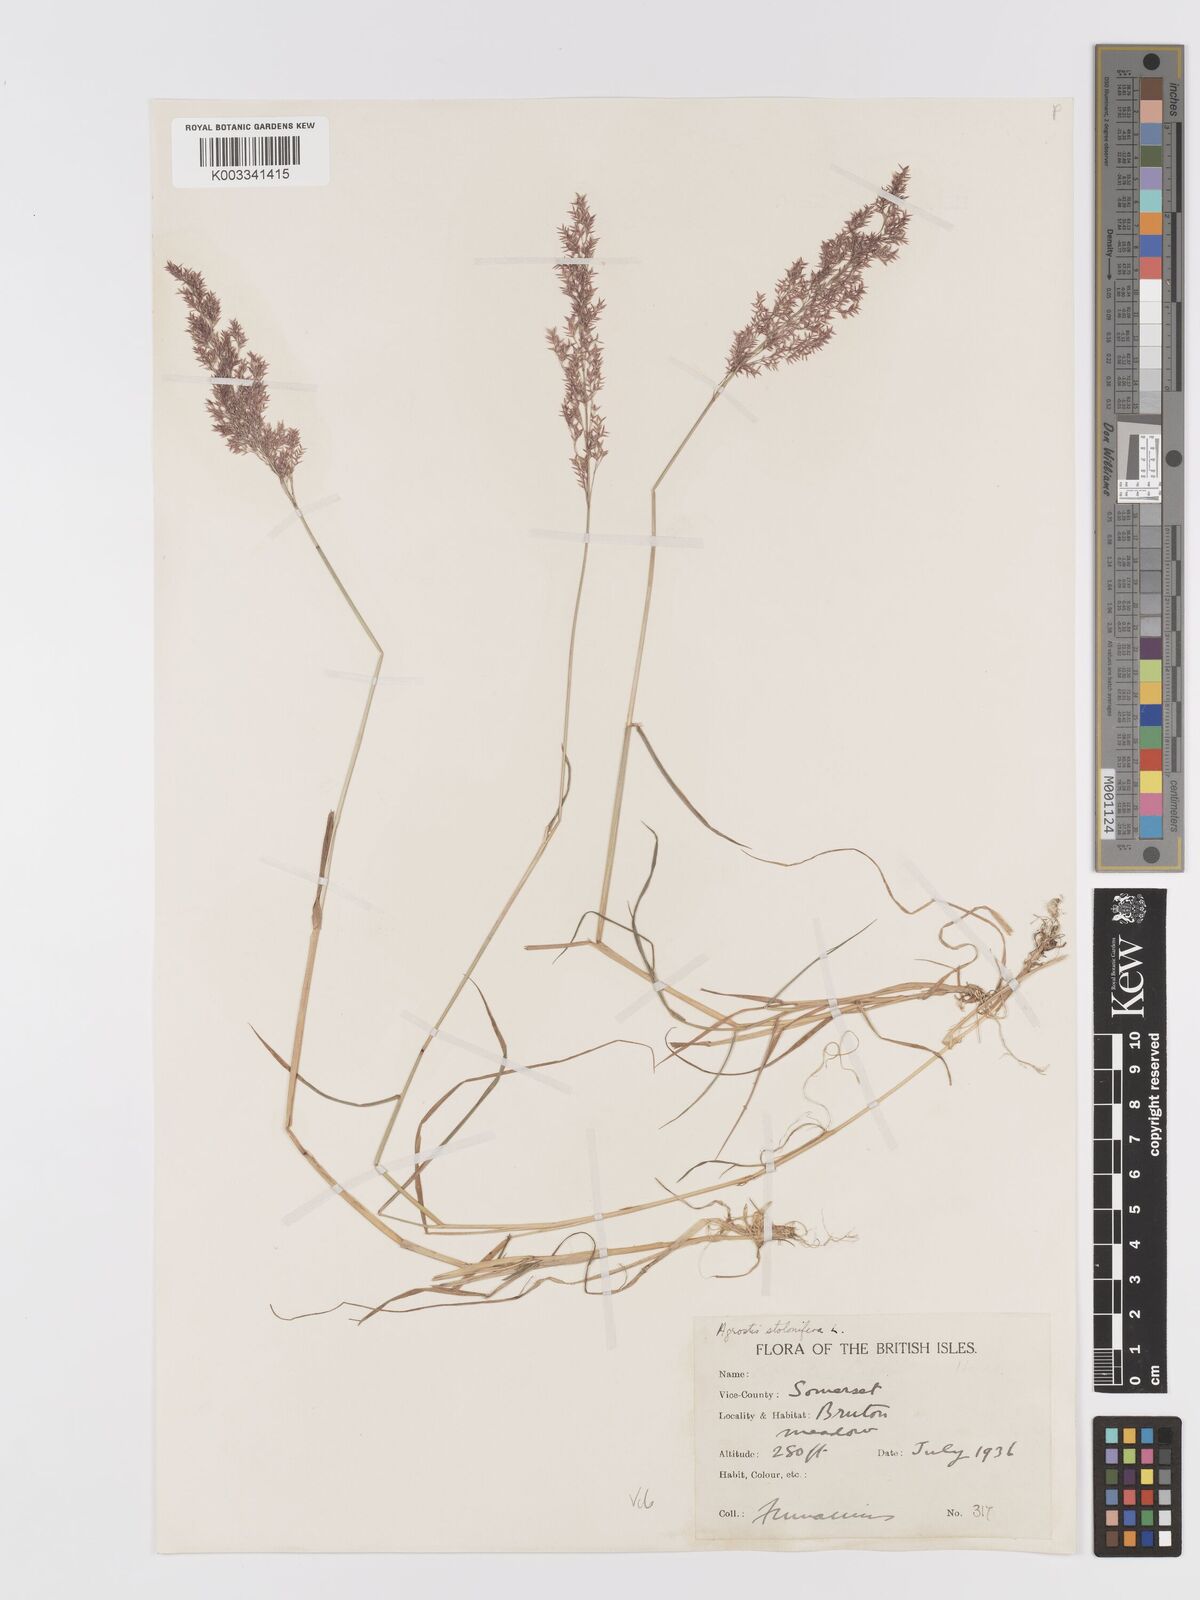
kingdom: Plantae
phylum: Tracheophyta
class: Liliopsida
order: Poales
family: Poaceae
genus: Agrostis
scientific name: Agrostis stolonifera
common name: Creeping bentgrass
